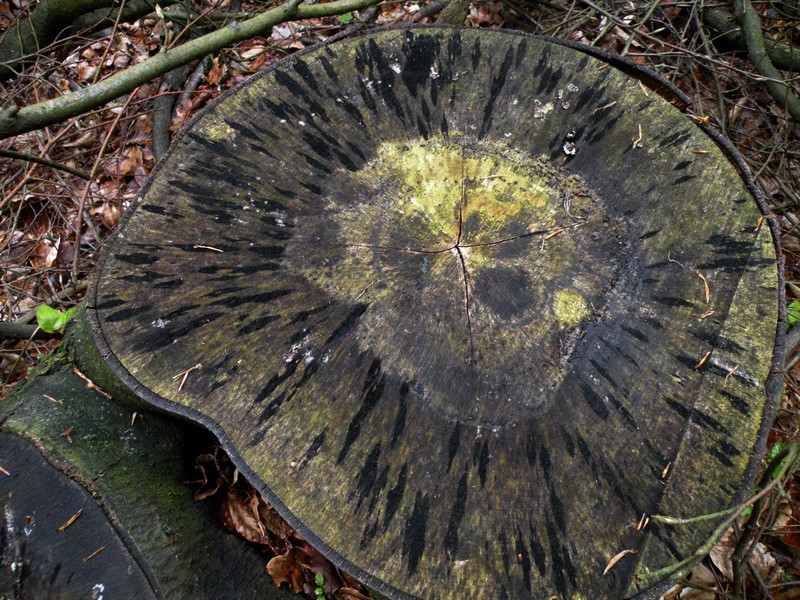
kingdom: Fungi
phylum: Ascomycota
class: Leotiomycetes
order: Helotiales
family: Helotiaceae
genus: Bispora
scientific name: Bispora pallescens
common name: måtte-snitskive
